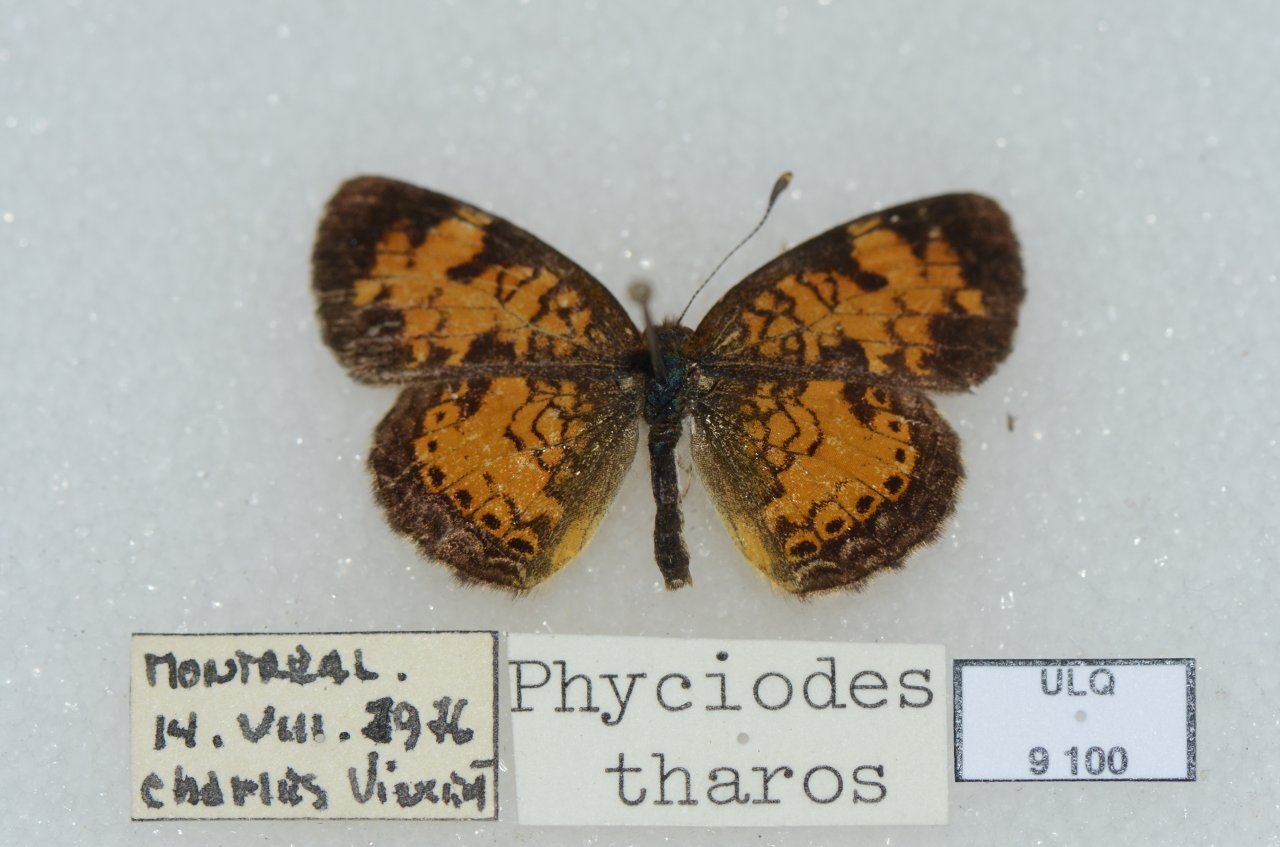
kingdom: Animalia
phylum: Arthropoda
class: Insecta
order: Lepidoptera
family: Nymphalidae
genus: Phyciodes
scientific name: Phyciodes tharos
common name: Northern Crescent
